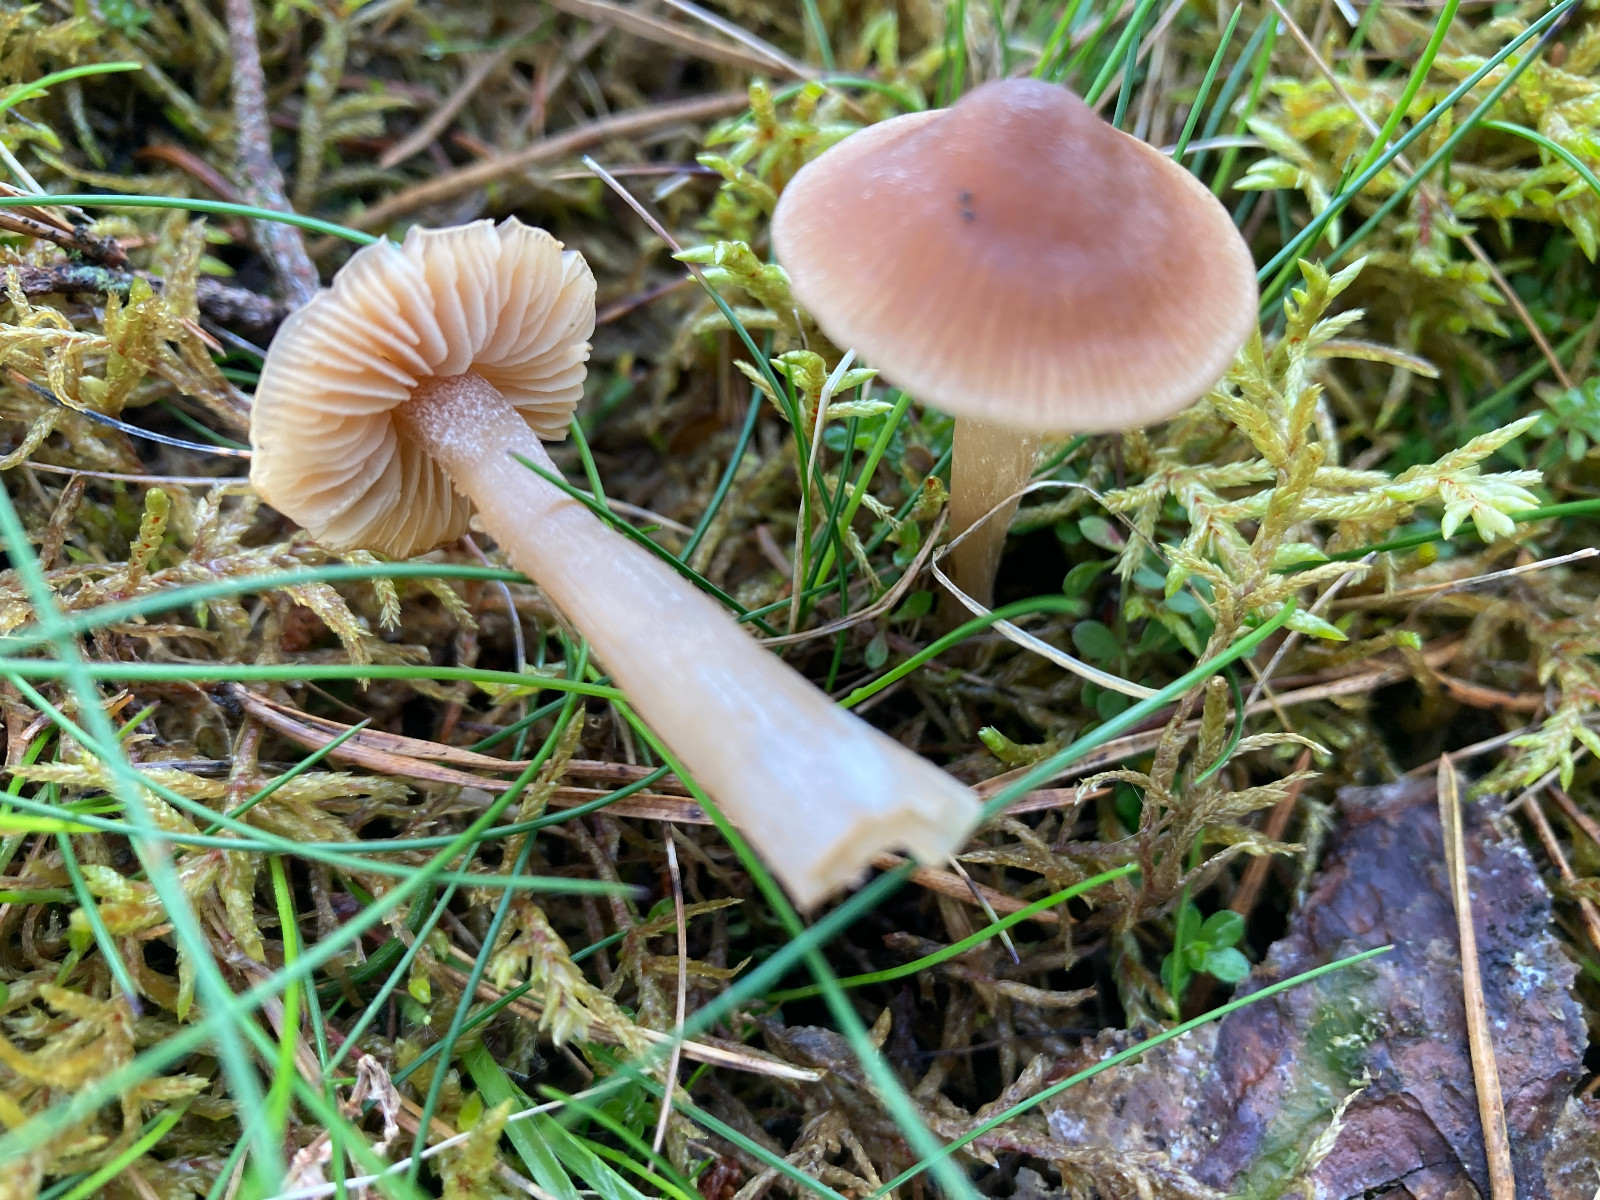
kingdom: Fungi
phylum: Basidiomycota
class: Agaricomycetes
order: Agaricales
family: Entolomataceae
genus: Entoloma
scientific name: Entoloma cetratum
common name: voks-rødblad
